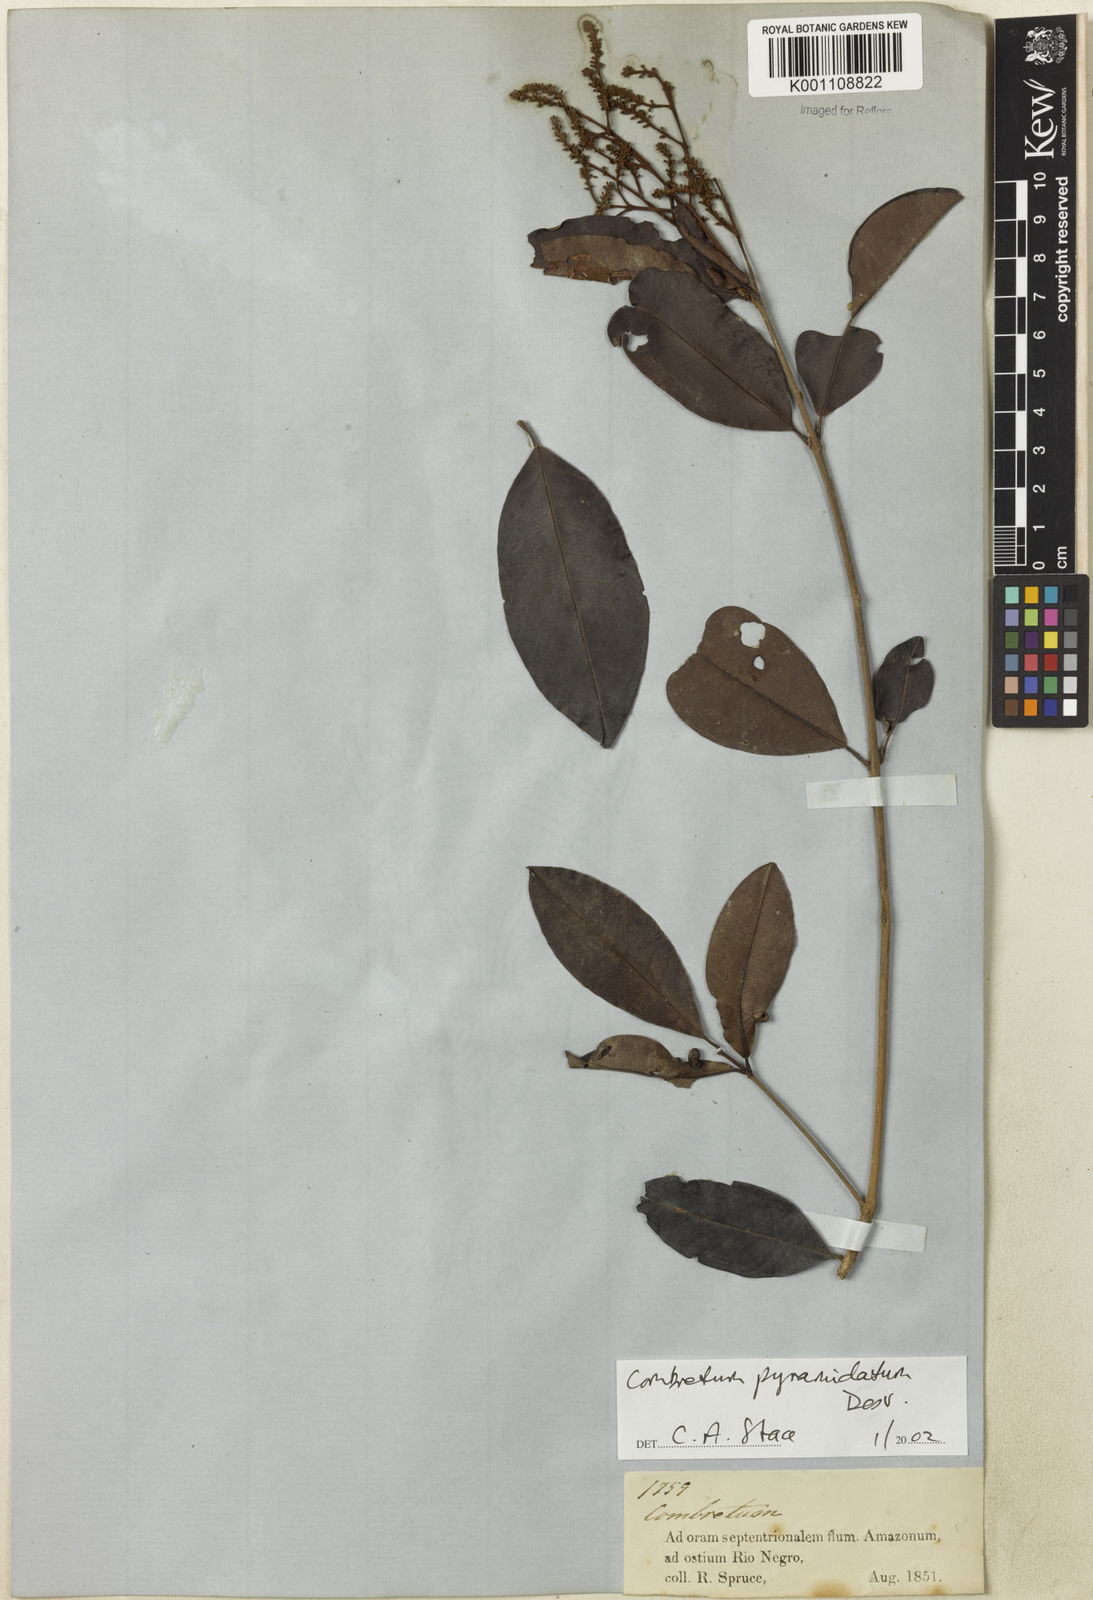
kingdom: Plantae
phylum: Tracheophyta
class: Magnoliopsida
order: Myrtales
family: Combretaceae
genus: Combretum
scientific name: Combretum pyramidatum
